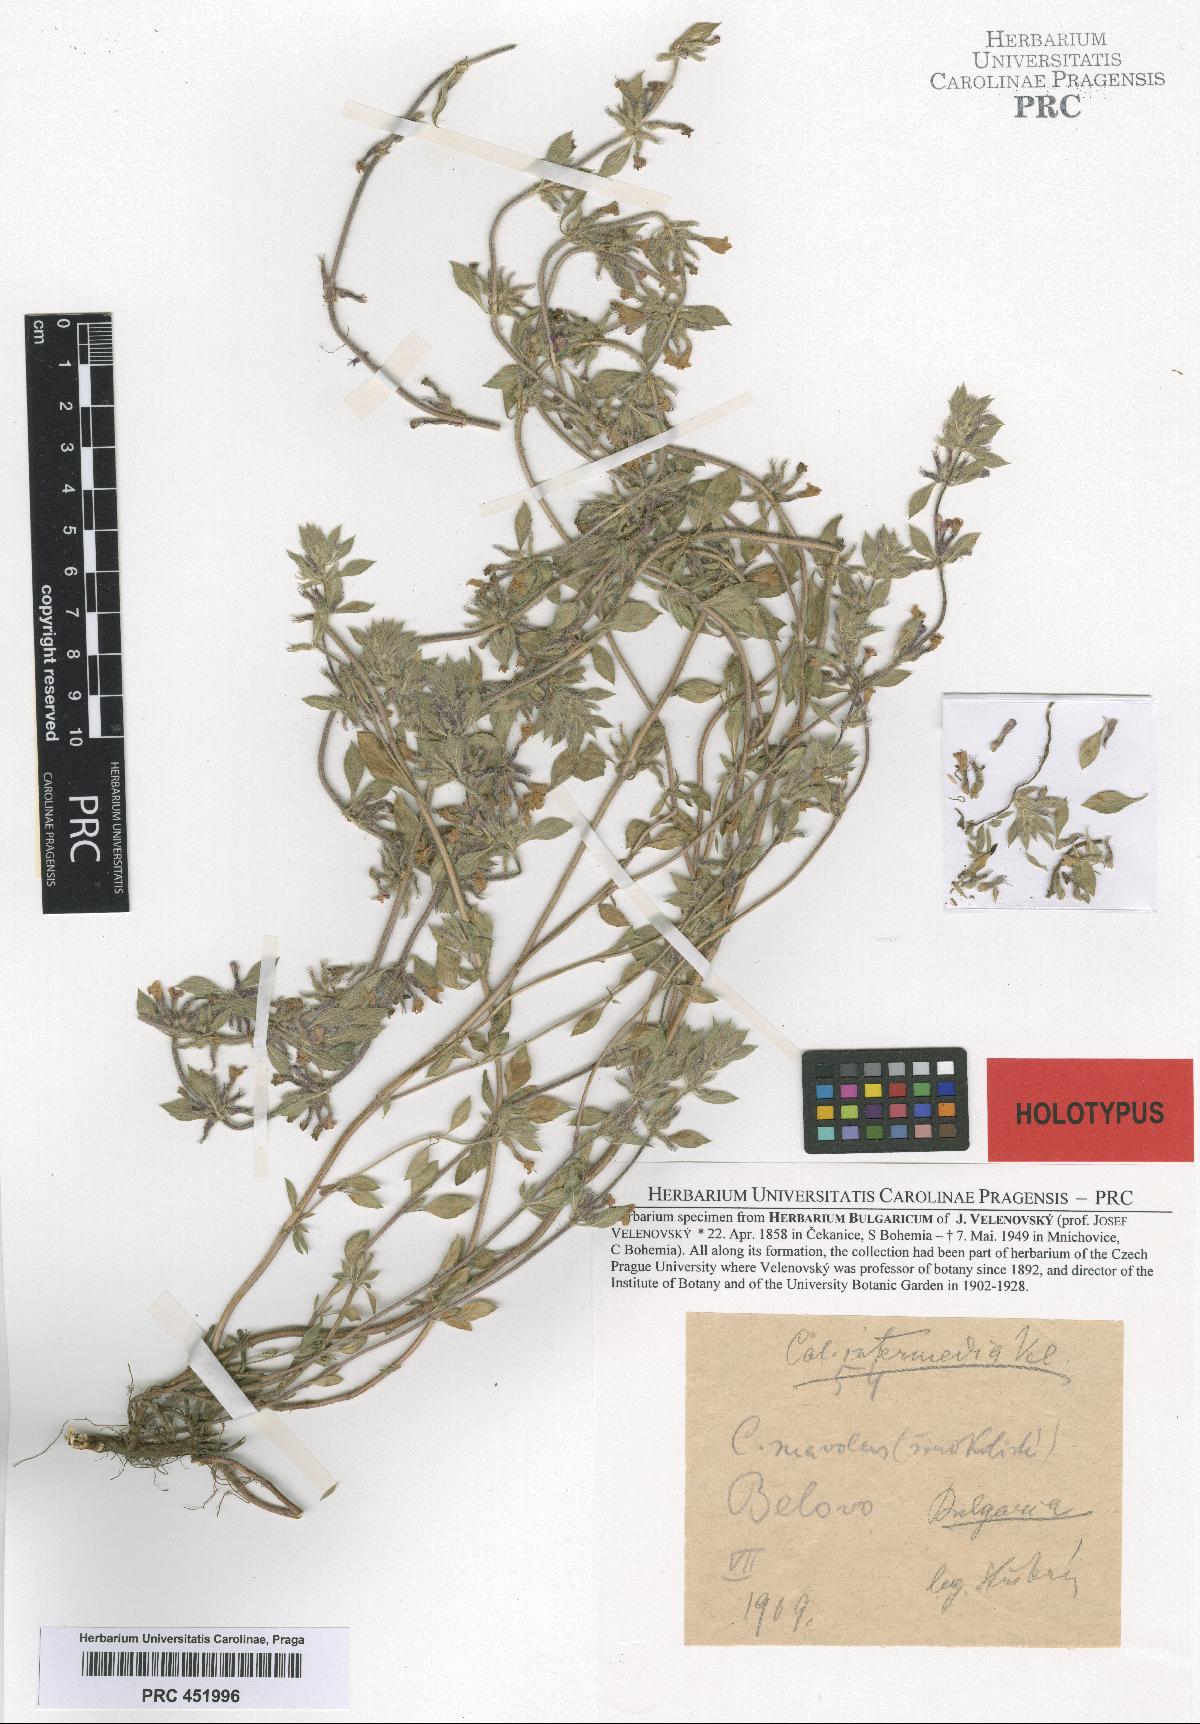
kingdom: Plantae
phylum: Tracheophyta
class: Magnoliopsida
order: Lamiales
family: Lamiaceae
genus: Clinopodium
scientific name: Clinopodium Calamintha intermedia
